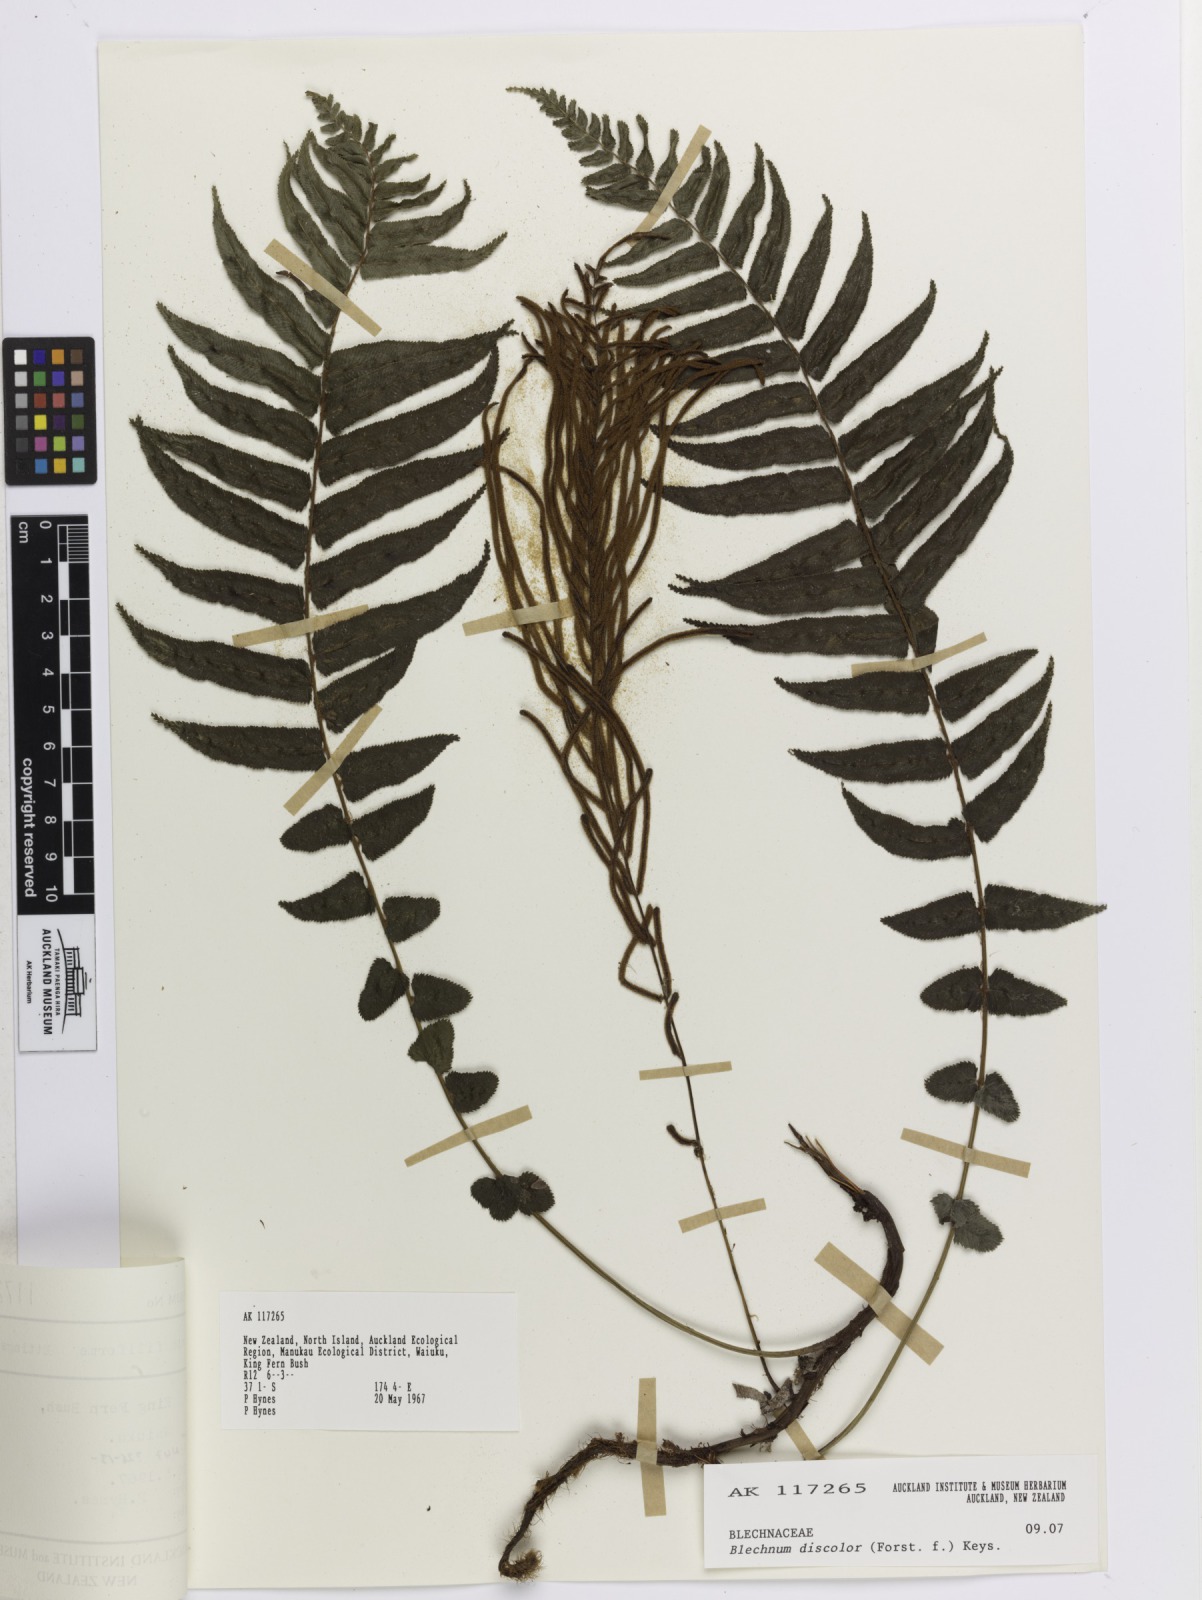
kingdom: Plantae
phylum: Tracheophyta
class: Polypodiopsida
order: Polypodiales
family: Blechnaceae
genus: Lomaria
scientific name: Lomaria discolor
